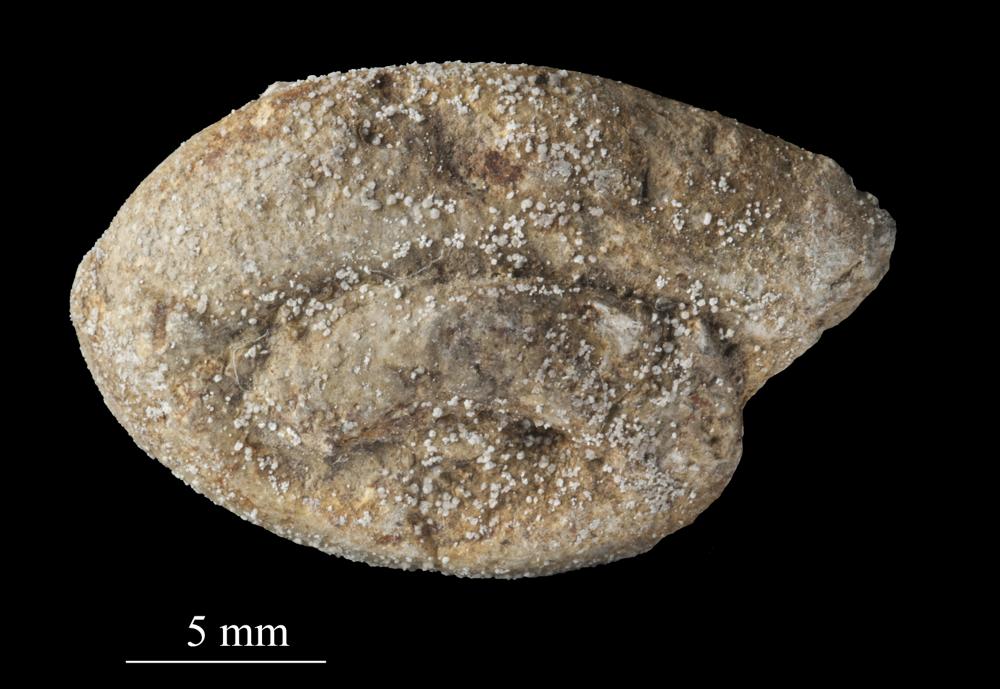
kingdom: Animalia
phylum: Mollusca
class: Gastropoda
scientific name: Gastropoda
